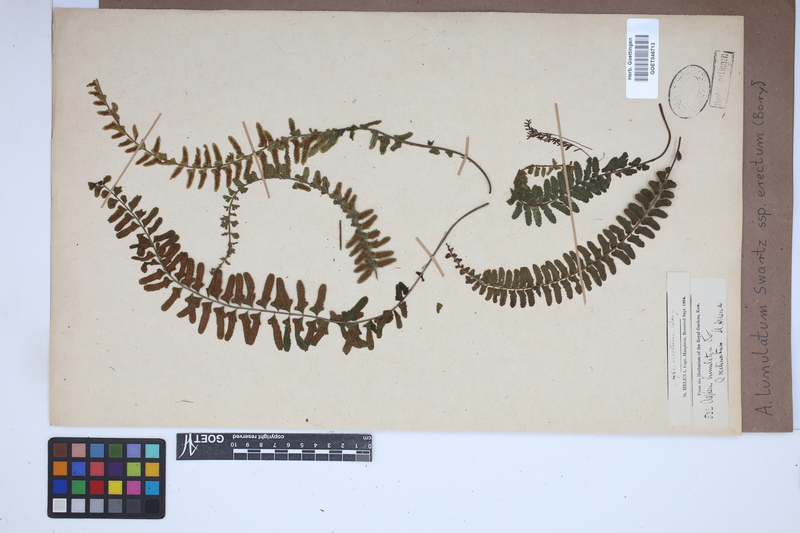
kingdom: Plantae
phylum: Tracheophyta
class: Polypodiopsida
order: Polypodiales
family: Aspleniaceae
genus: Asplenium
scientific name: Asplenium erectum
